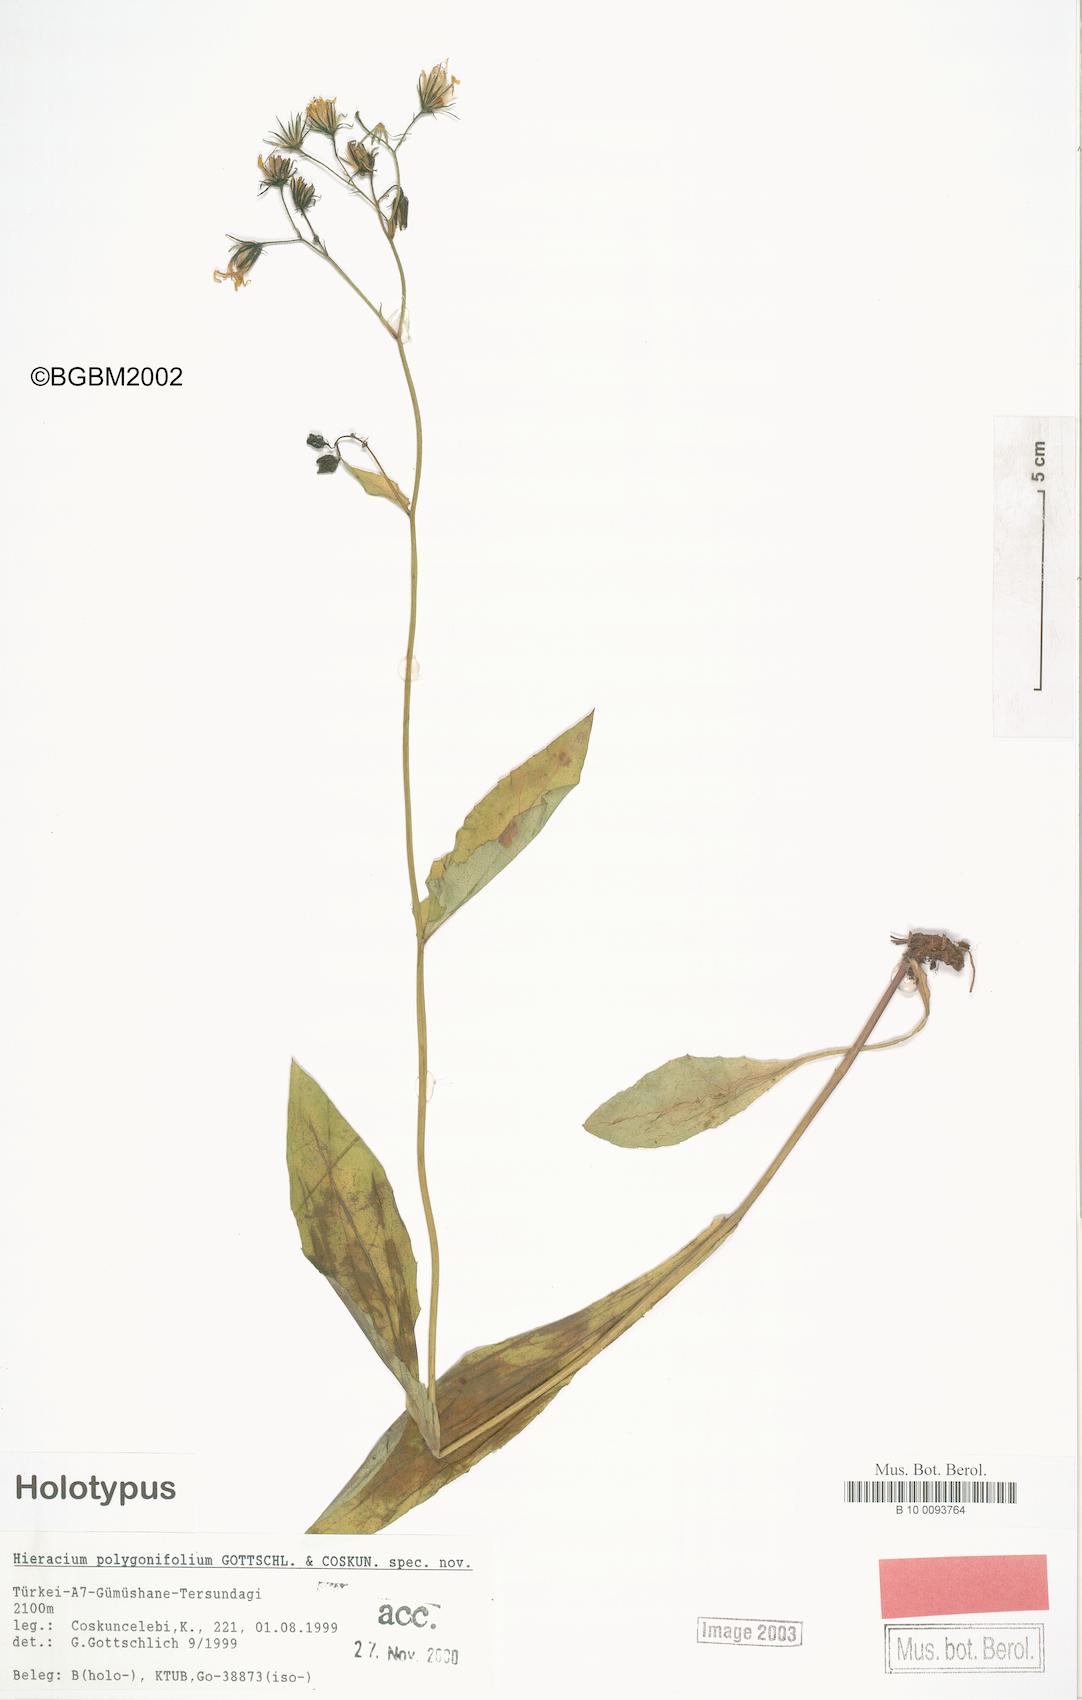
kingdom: Plantae
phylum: Tracheophyta
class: Magnoliopsida
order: Asterales
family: Asteraceae
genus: Hieracium
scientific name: Hieracium polygonifolium
